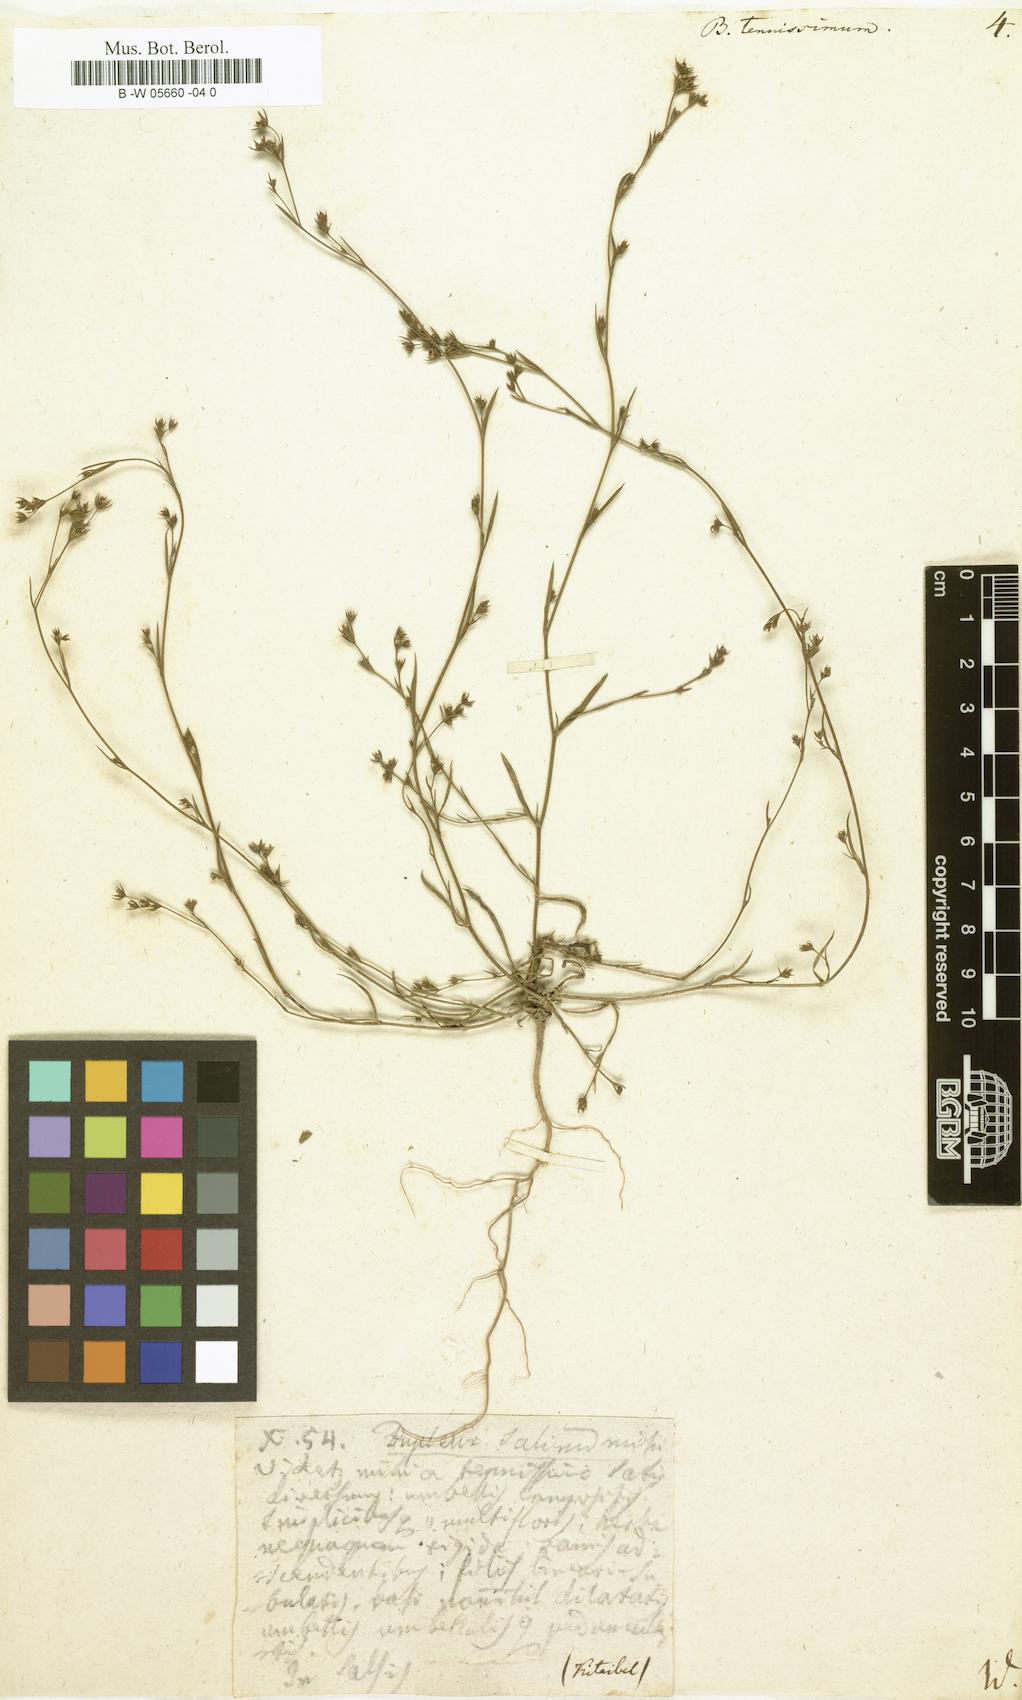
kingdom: Plantae
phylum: Tracheophyta
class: Magnoliopsida
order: Apiales
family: Apiaceae
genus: Bupleurum
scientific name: Bupleurum tenuissimum
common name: Slender hare's-ear
